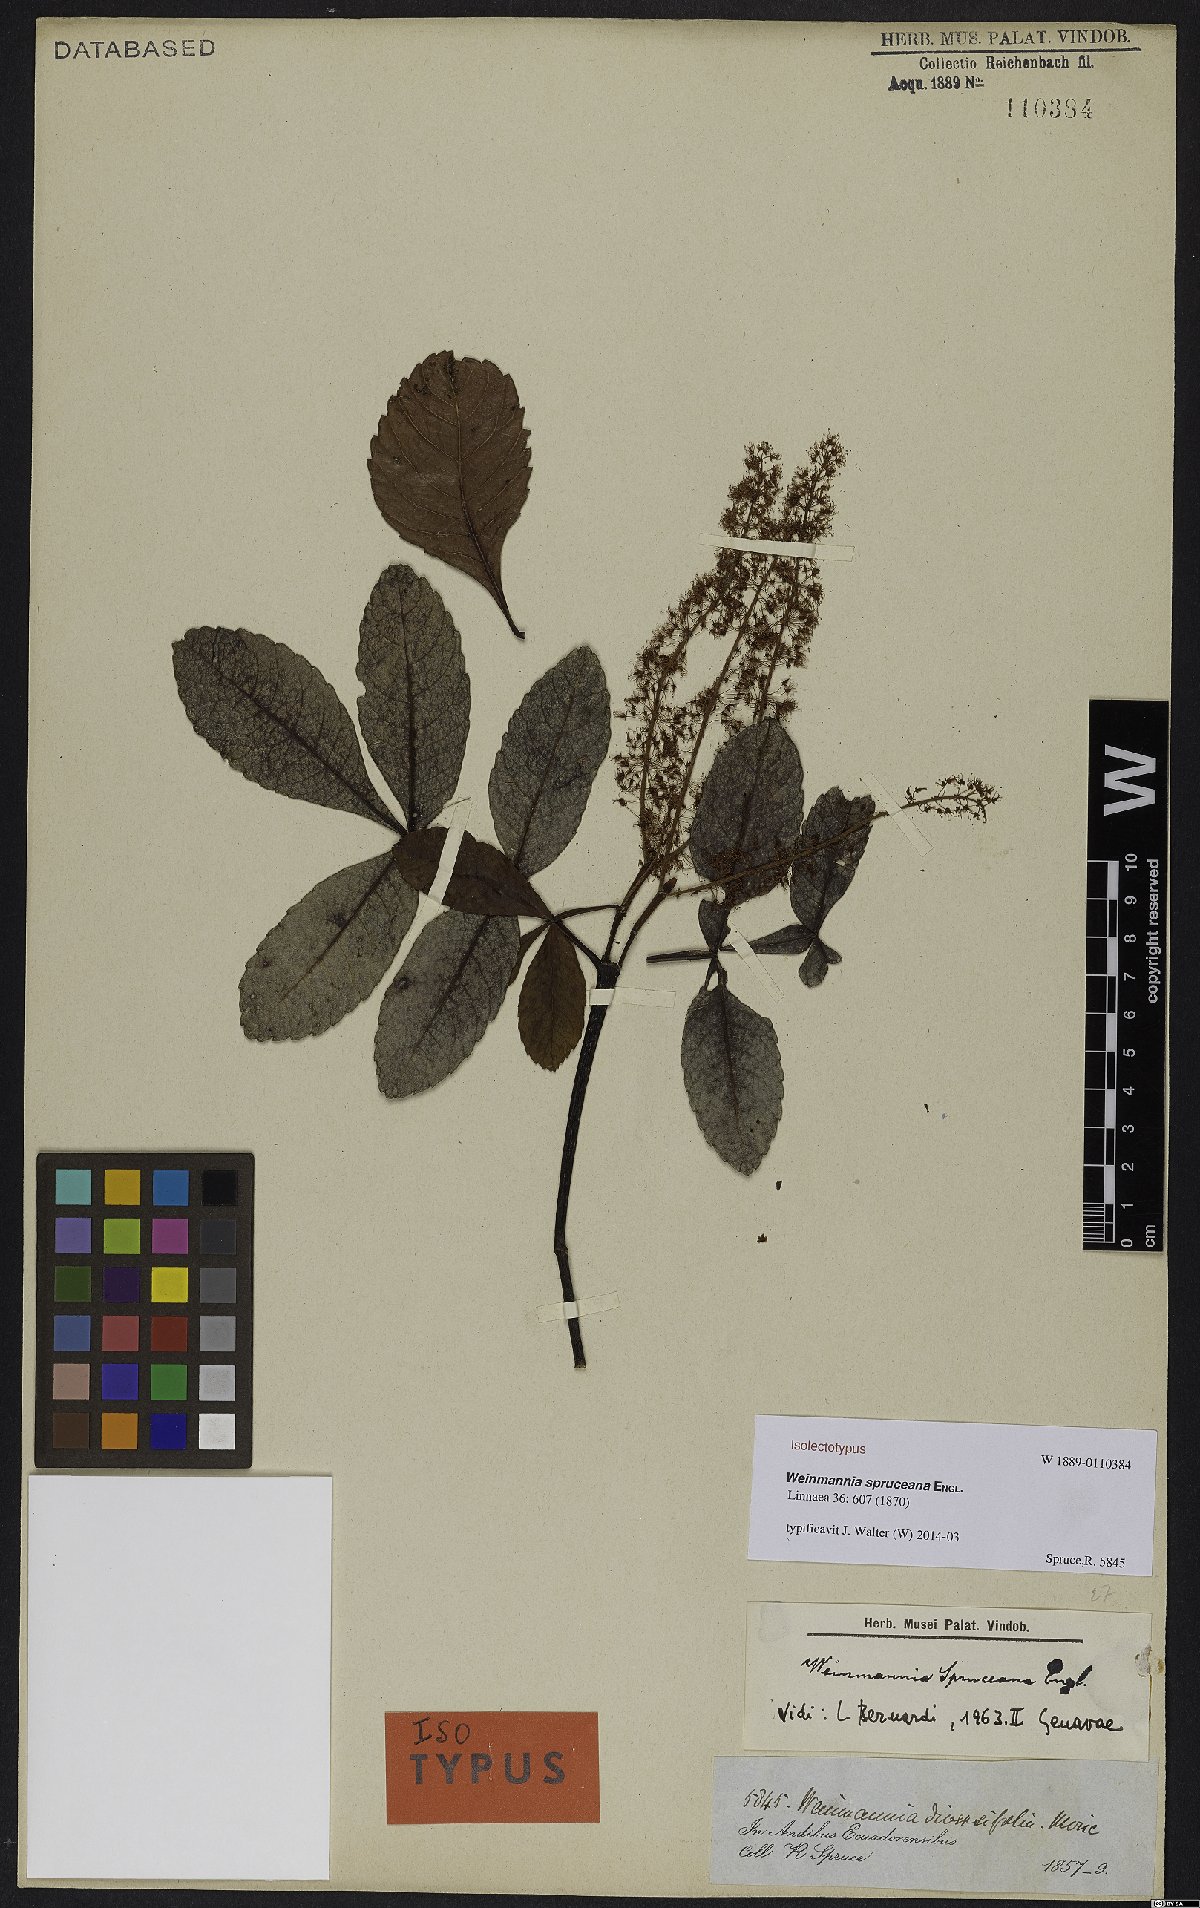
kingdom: Plantae
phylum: Tracheophyta
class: Magnoliopsida
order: Oxalidales
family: Cunoniaceae
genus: Weinmannia
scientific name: Weinmannia spruceana
